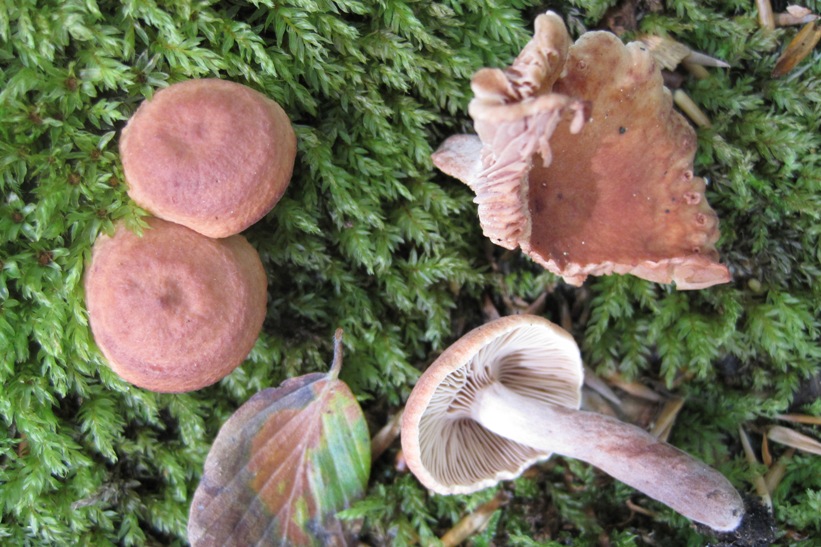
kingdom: Fungi
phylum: Basidiomycota
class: Agaricomycetes
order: Russulales
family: Russulaceae
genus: Lactarius
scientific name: Lactarius rostratus
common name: nubret mælkehat
